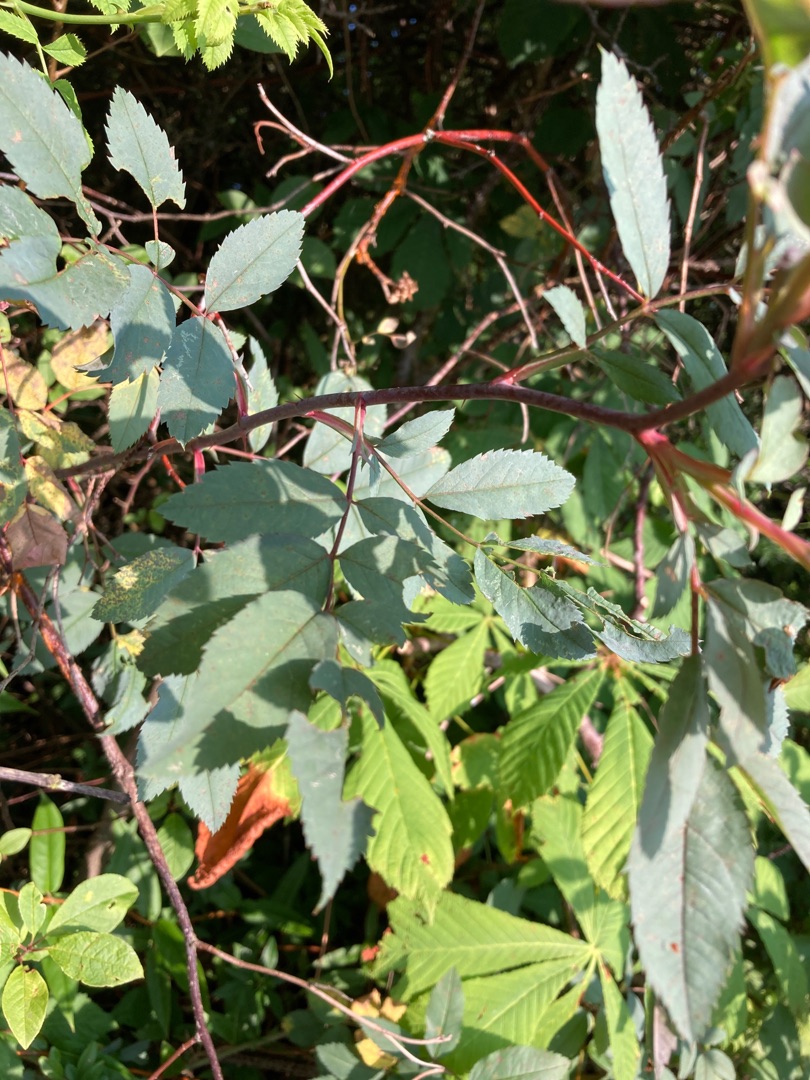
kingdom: Plantae
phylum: Tracheophyta
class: Magnoliopsida
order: Rosales
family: Rosaceae
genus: Rosa
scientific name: Rosa glauca
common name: Kobber-rose
